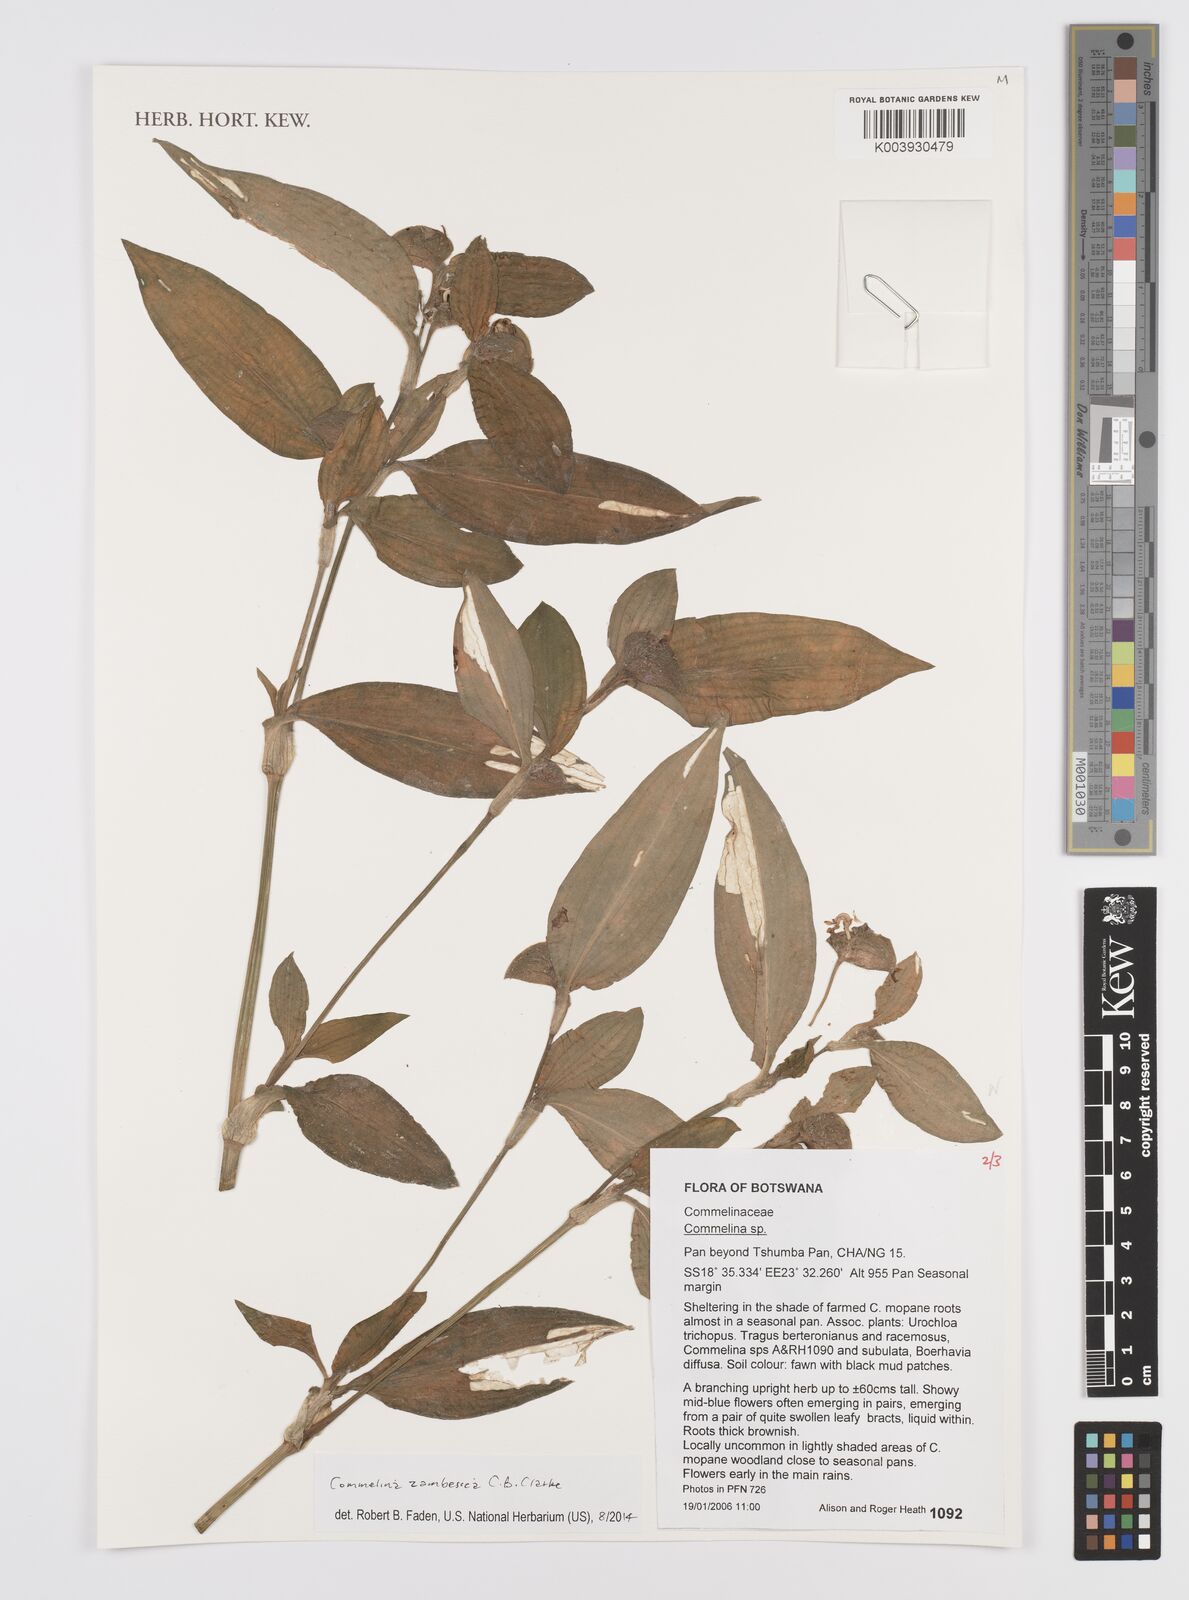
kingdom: Plantae
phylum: Tracheophyta
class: Liliopsida
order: Commelinales
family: Commelinaceae
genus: Commelina
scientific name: Commelina zambesica
